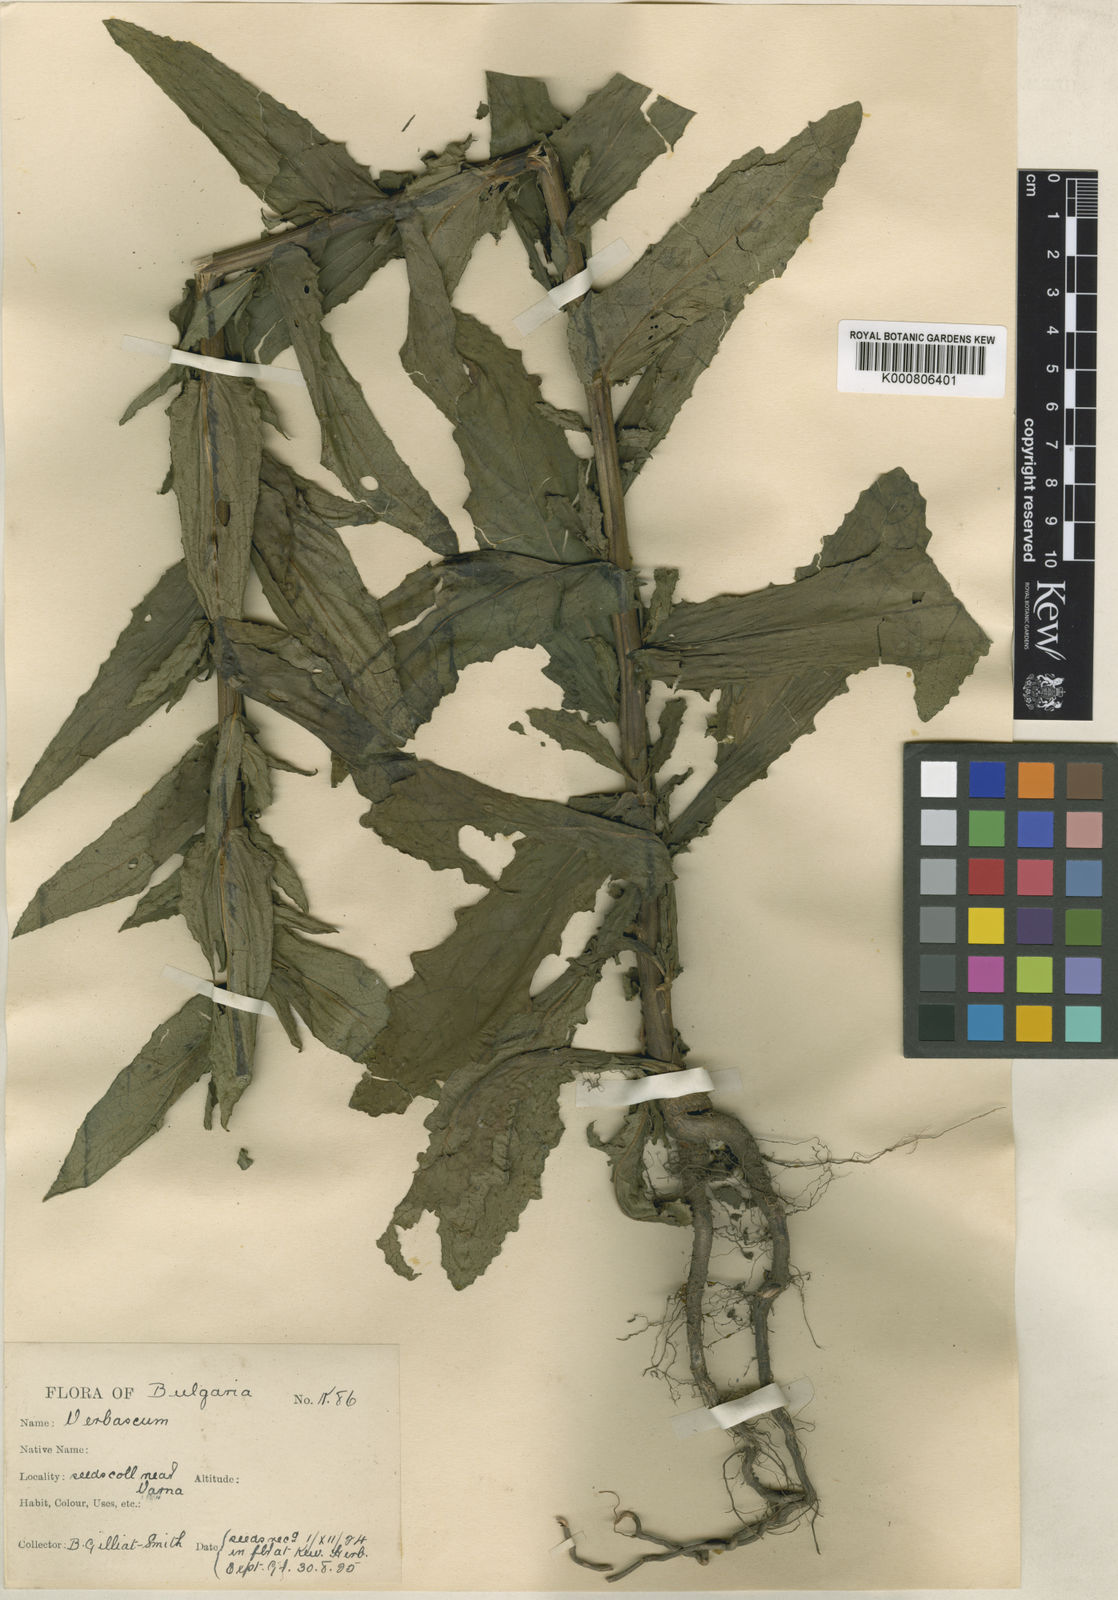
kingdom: Plantae
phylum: Tracheophyta
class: Magnoliopsida
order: Lamiales
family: Scrophulariaceae
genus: Verbascum
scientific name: Verbascum blattaria
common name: Moth mullein
